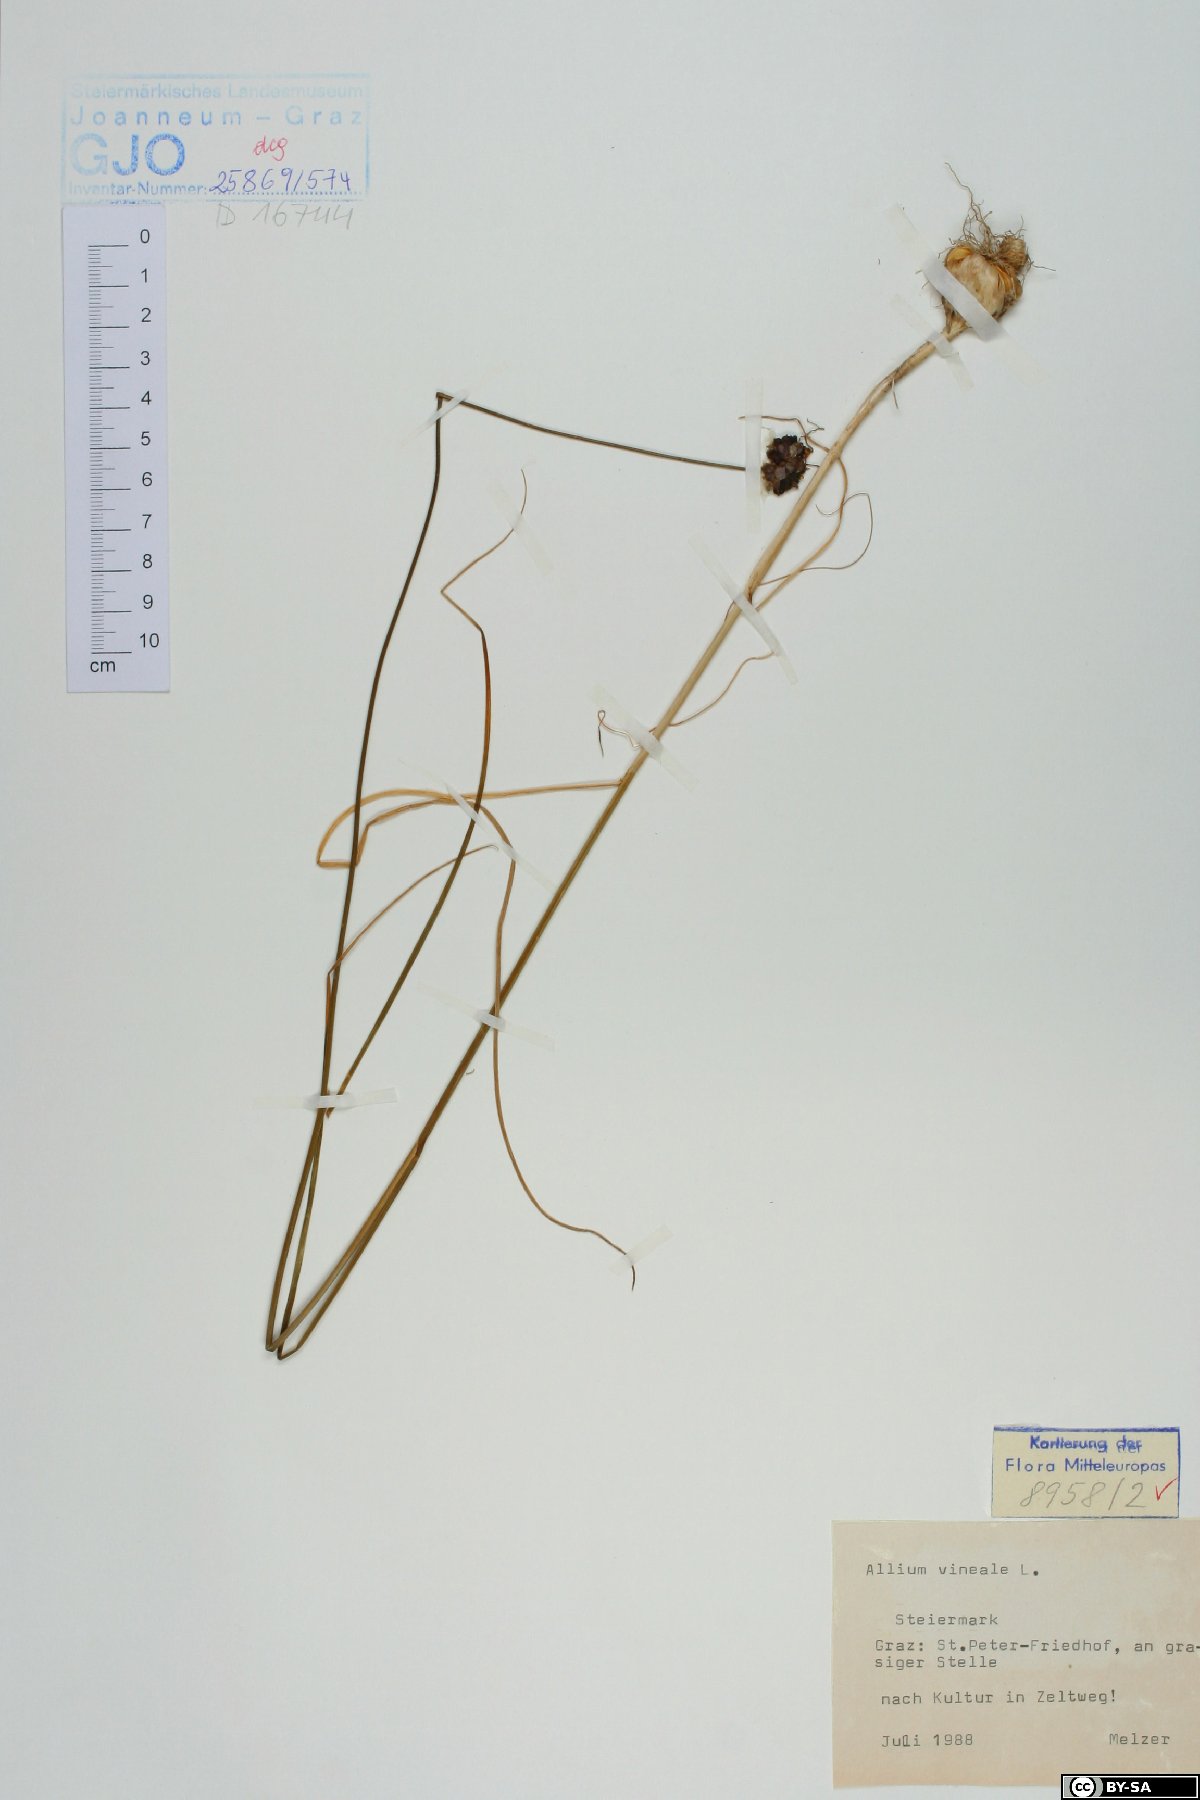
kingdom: Plantae
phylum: Tracheophyta
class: Liliopsida
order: Asparagales
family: Amaryllidaceae
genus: Allium
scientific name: Allium vineale
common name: Crow garlic
